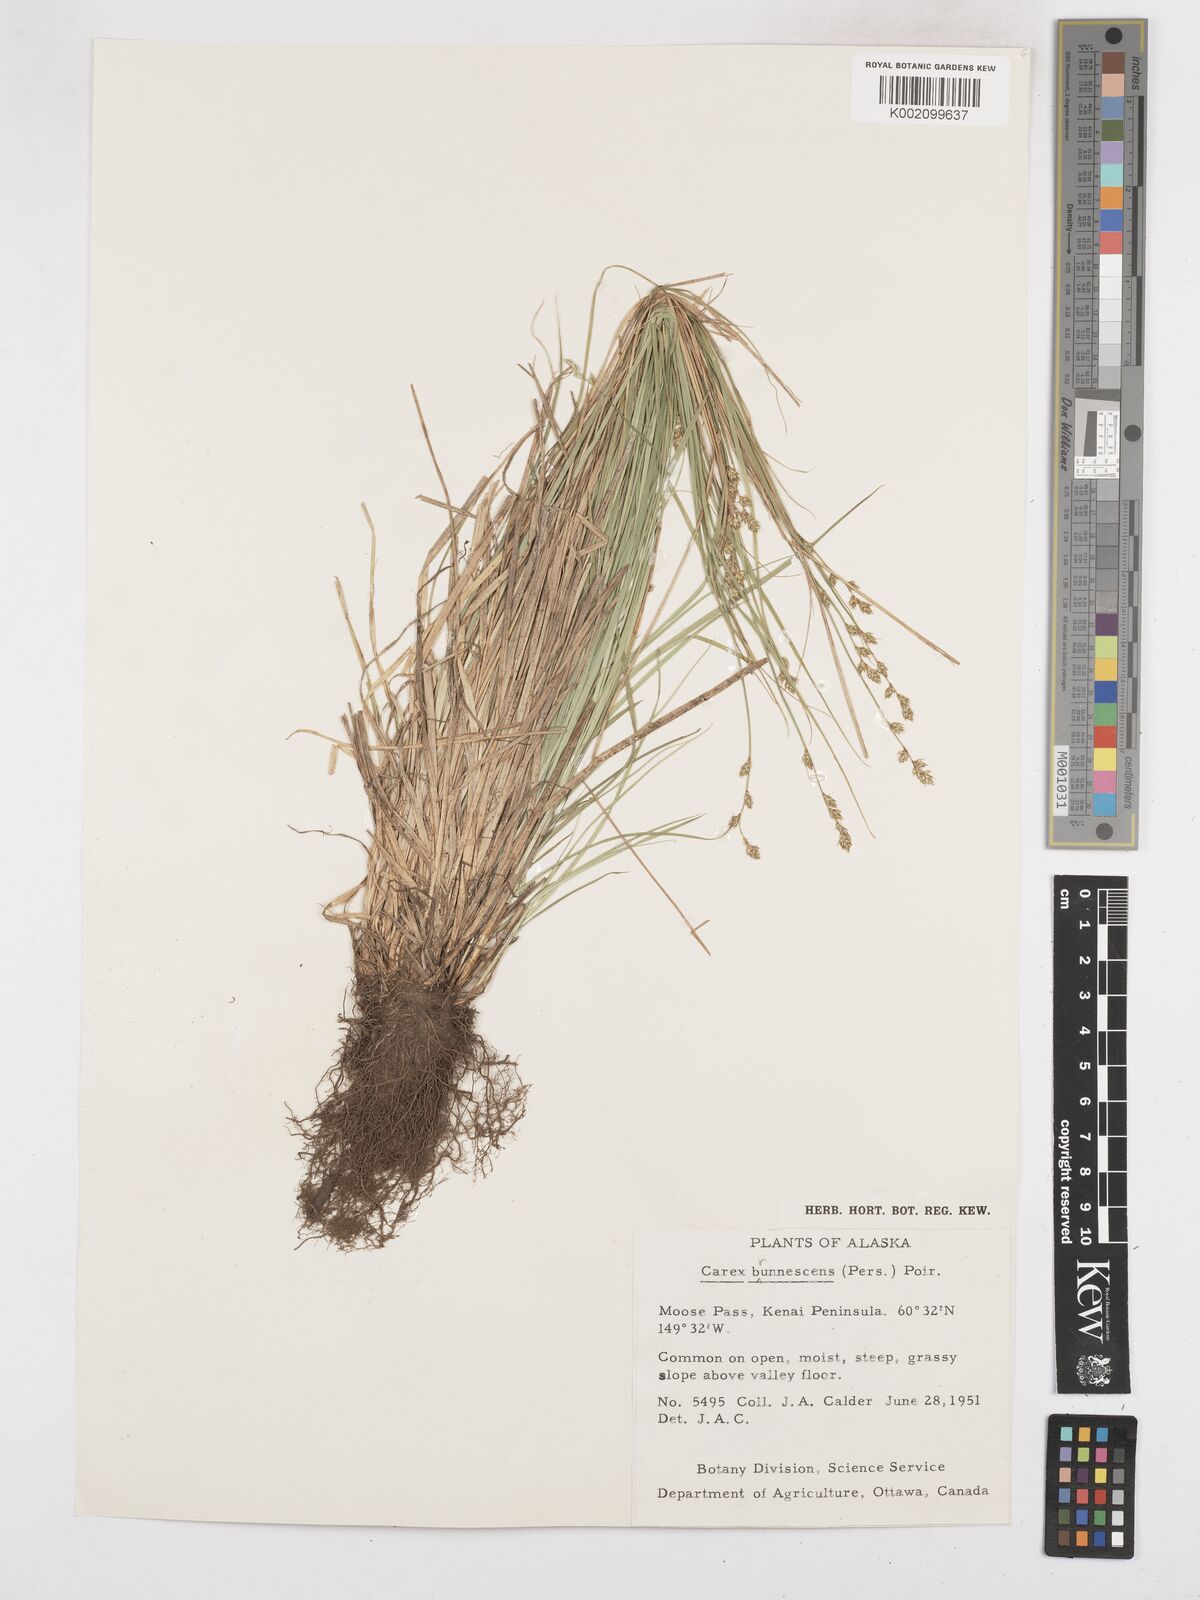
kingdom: Plantae
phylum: Tracheophyta
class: Liliopsida
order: Poales
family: Cyperaceae
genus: Carex
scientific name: Carex brunnescens
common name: Brown sedge
